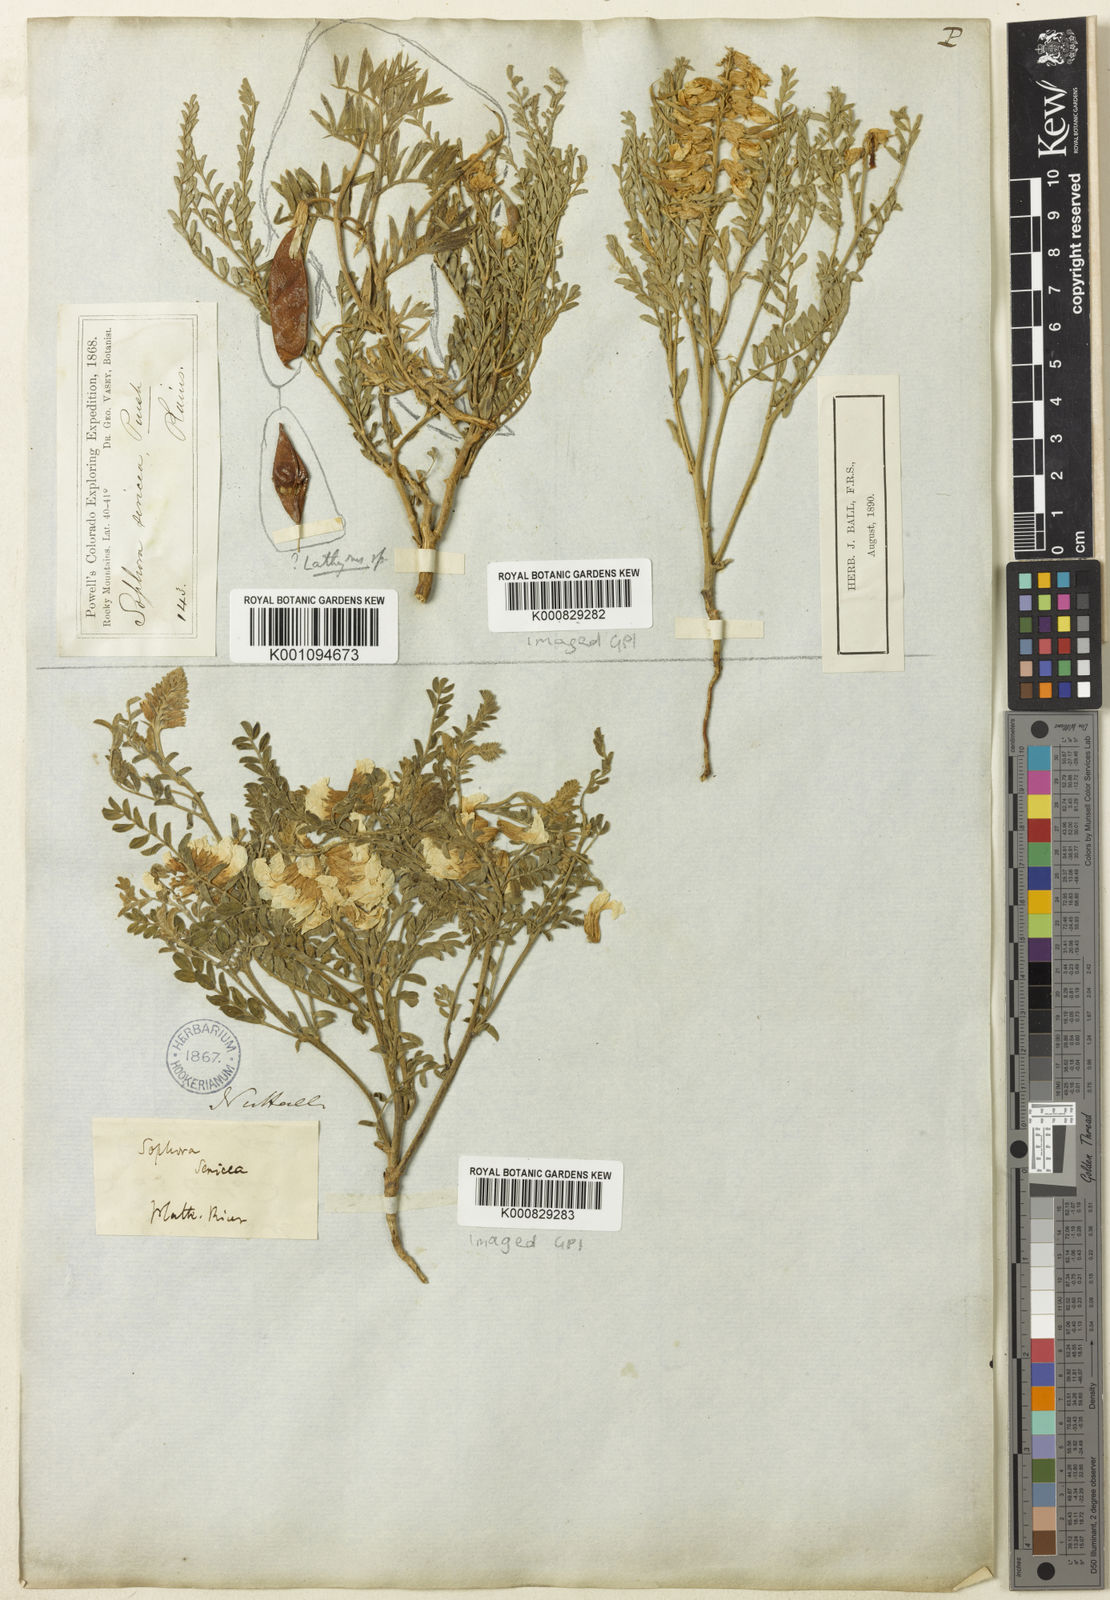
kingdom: Plantae
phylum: Tracheophyta
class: Magnoliopsida
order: Fabales
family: Fabaceae
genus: Sophora
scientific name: Sophora nuttalliana
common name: Silky sophora
